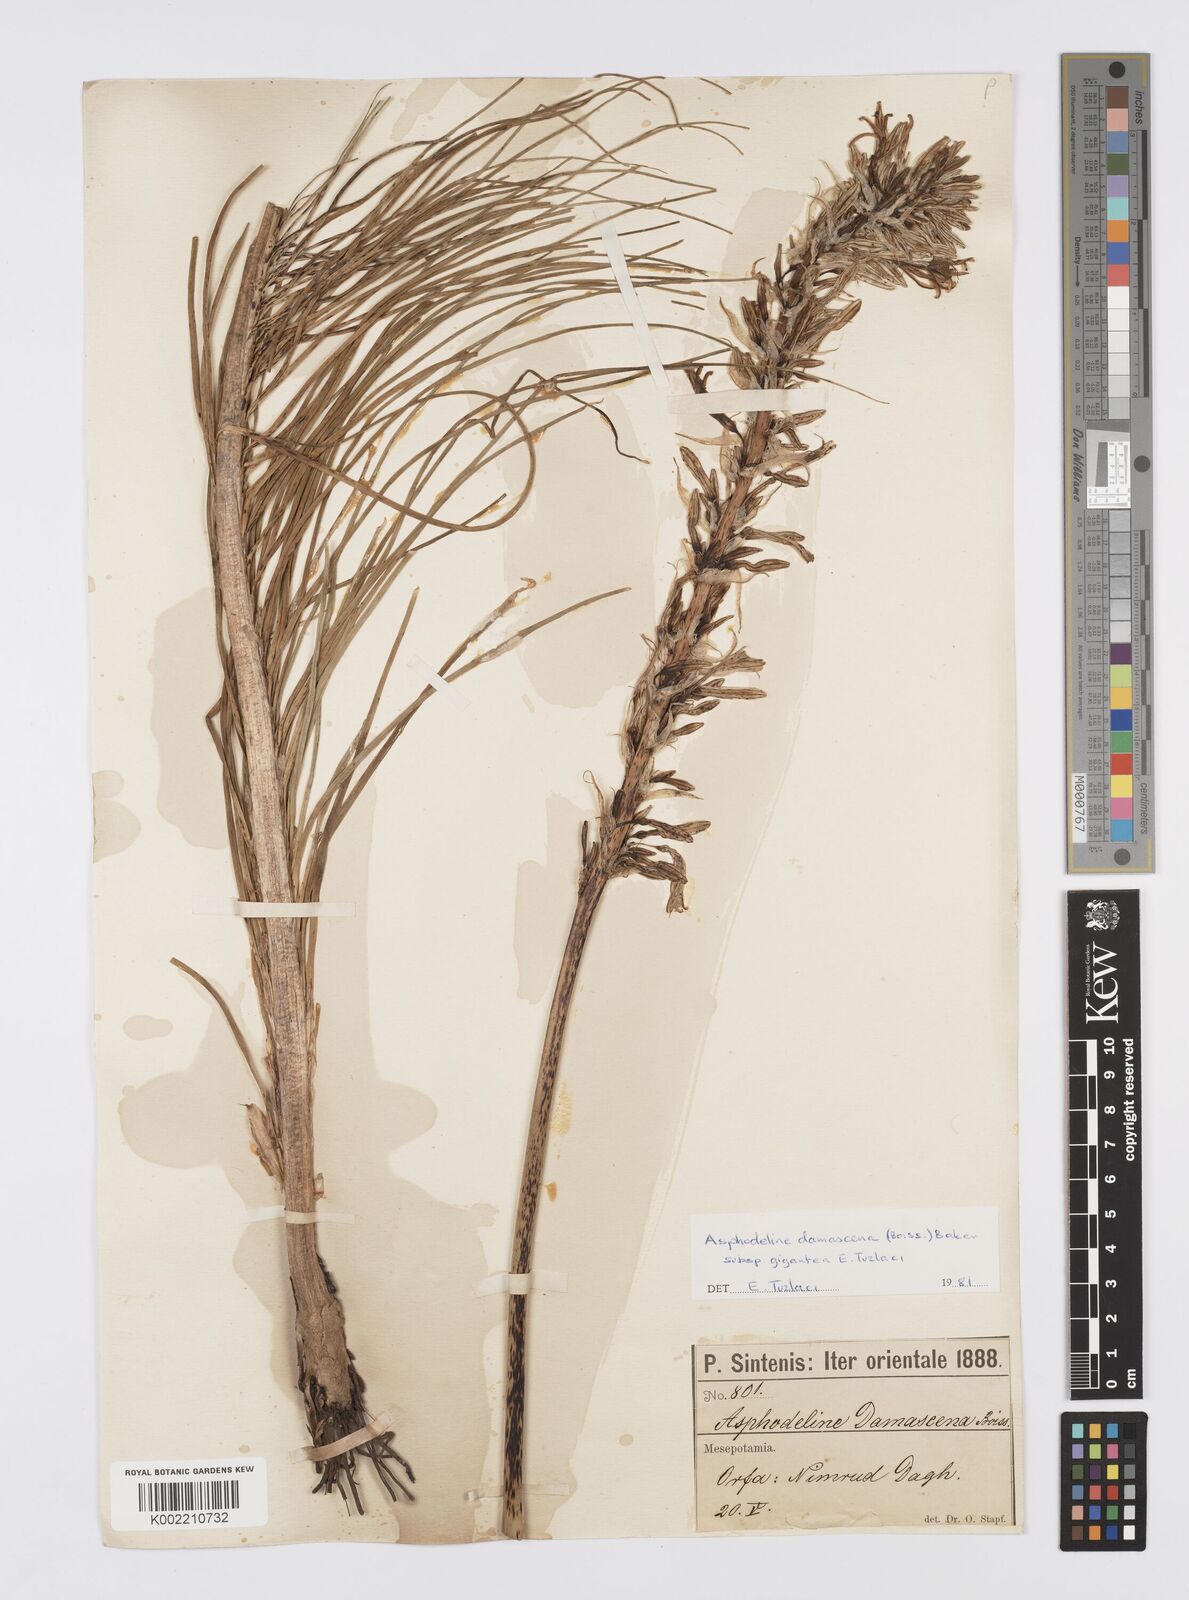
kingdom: Plantae
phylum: Tracheophyta
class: Liliopsida
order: Asparagales
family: Asphodelaceae
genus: Asphodeline
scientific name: Asphodeline damascena
